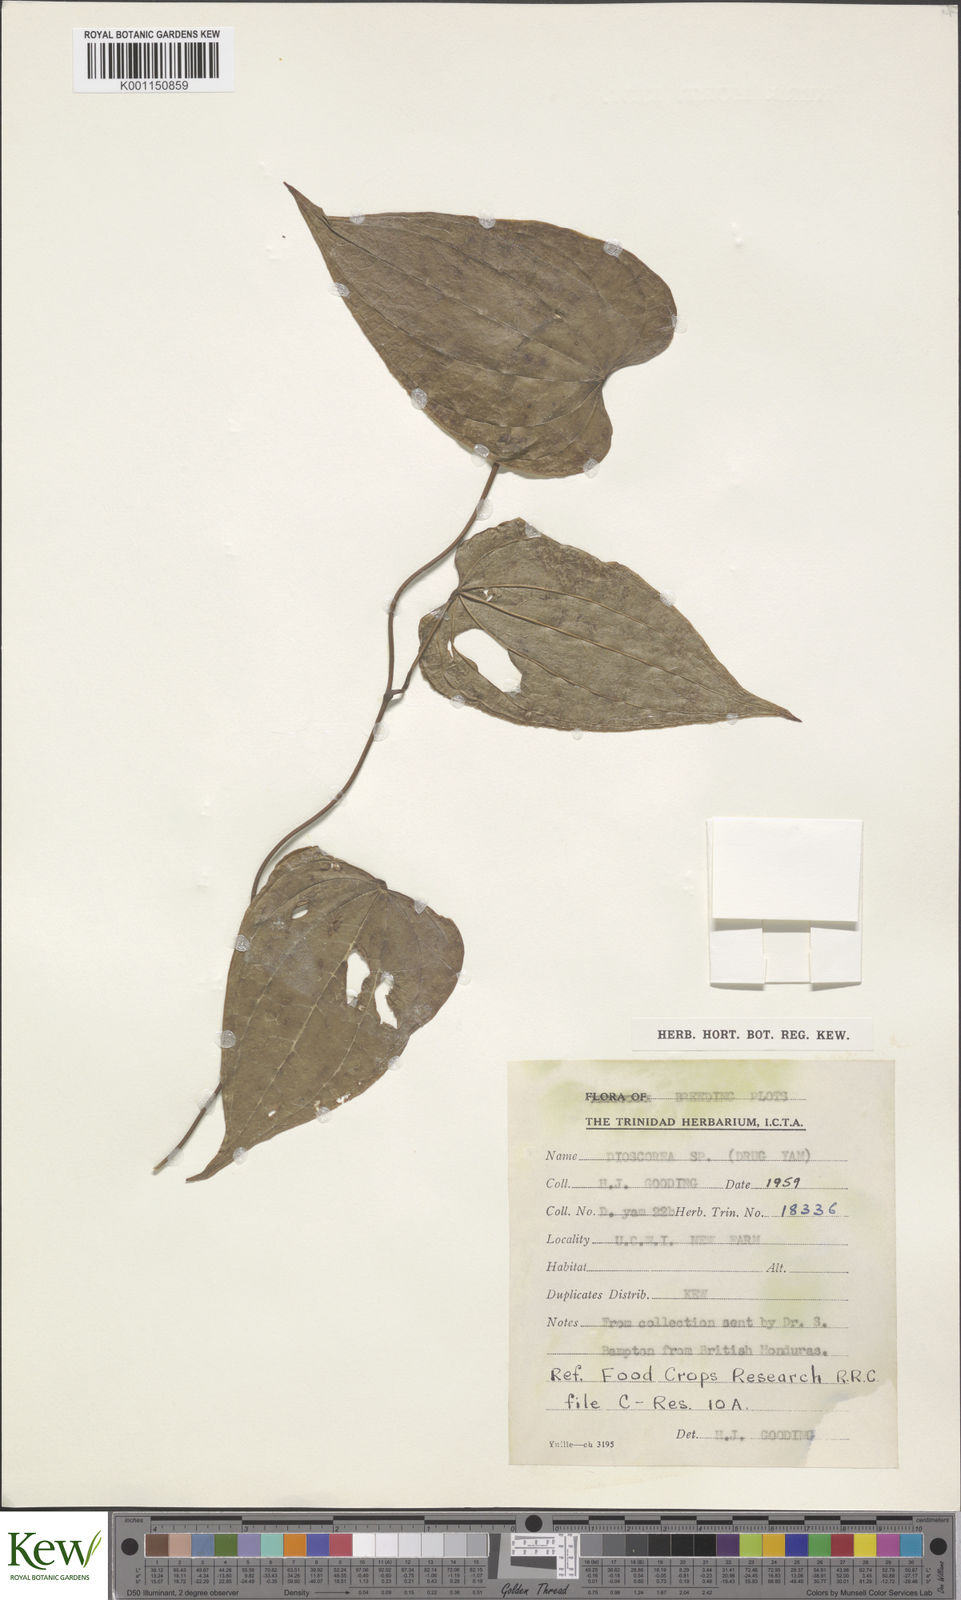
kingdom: Plantae
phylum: Tracheophyta
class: Liliopsida
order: Dioscoreales
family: Dioscoreaceae
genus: Dioscorea
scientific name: Dioscorea
